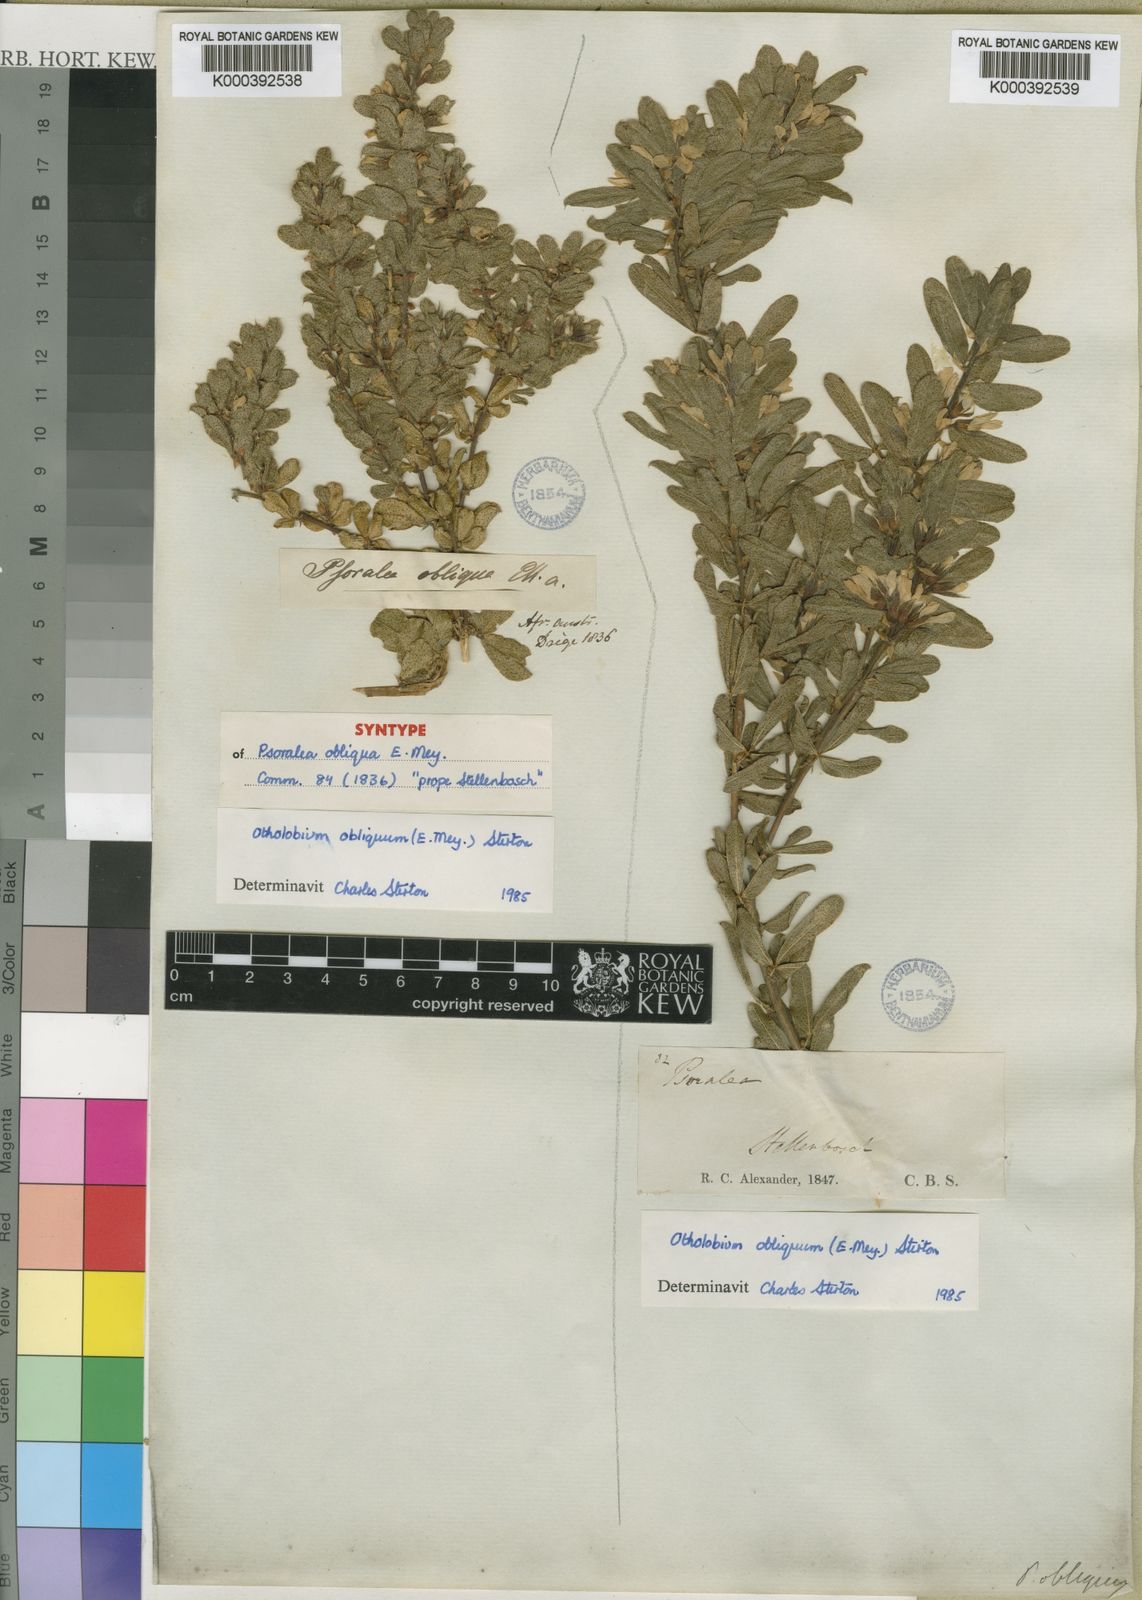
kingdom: Plantae
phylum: Tracheophyta
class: Magnoliopsida
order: Fabales
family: Fabaceae
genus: Psoralea
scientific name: Psoralea obliqua
